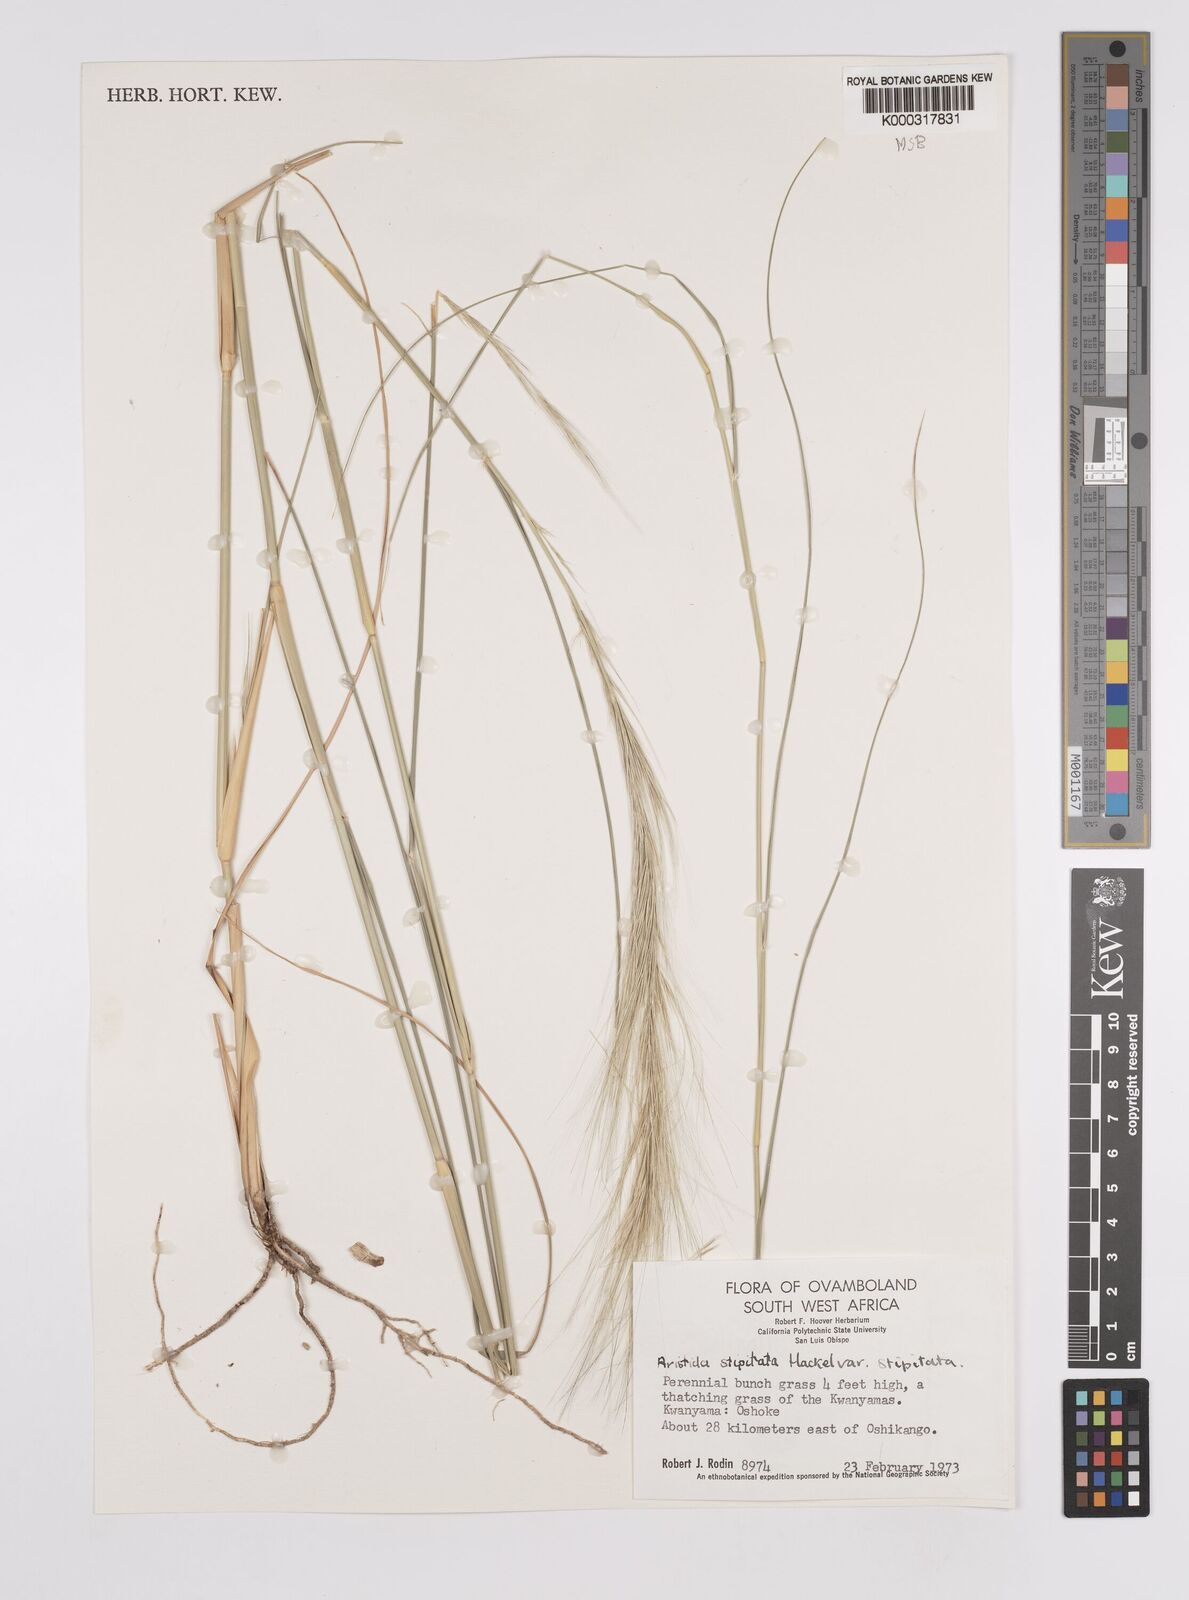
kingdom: Plantae
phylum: Tracheophyta
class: Liliopsida
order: Poales
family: Poaceae
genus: Aristida
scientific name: Aristida stipitata
